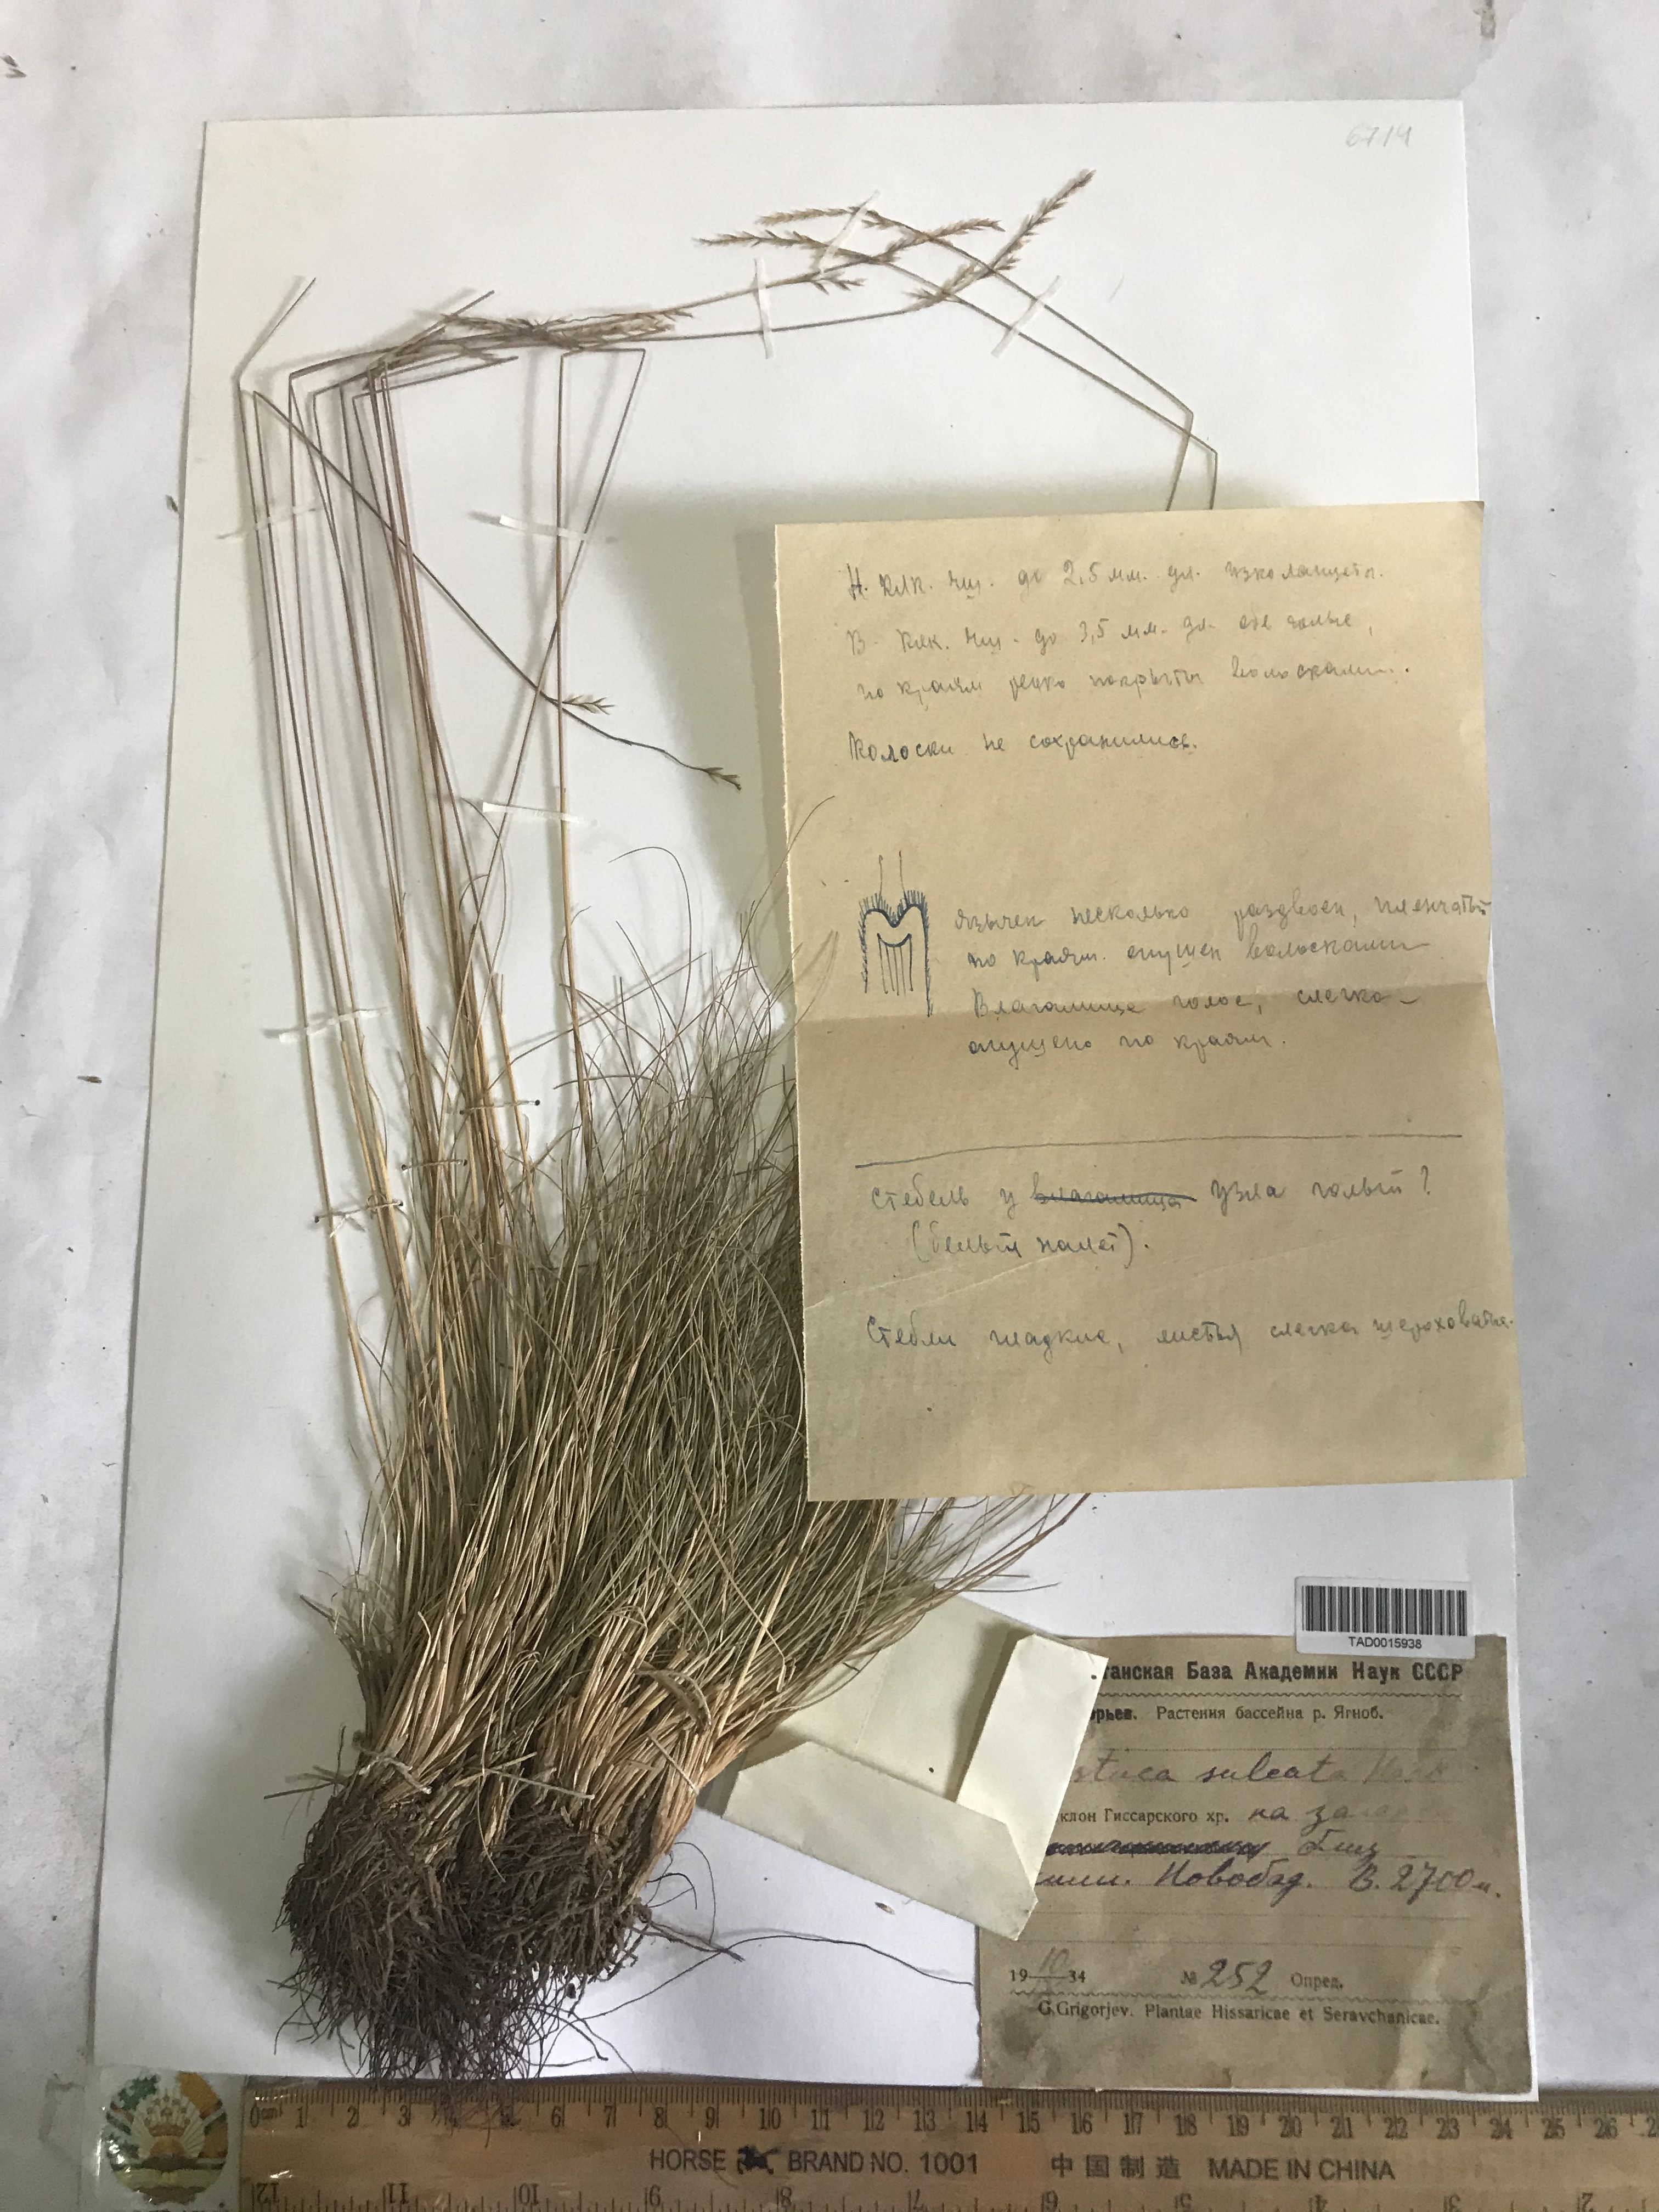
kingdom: Plantae
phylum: Tracheophyta
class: Liliopsida
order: Poales
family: Poaceae
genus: Festuca
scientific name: Festuca sulcata
